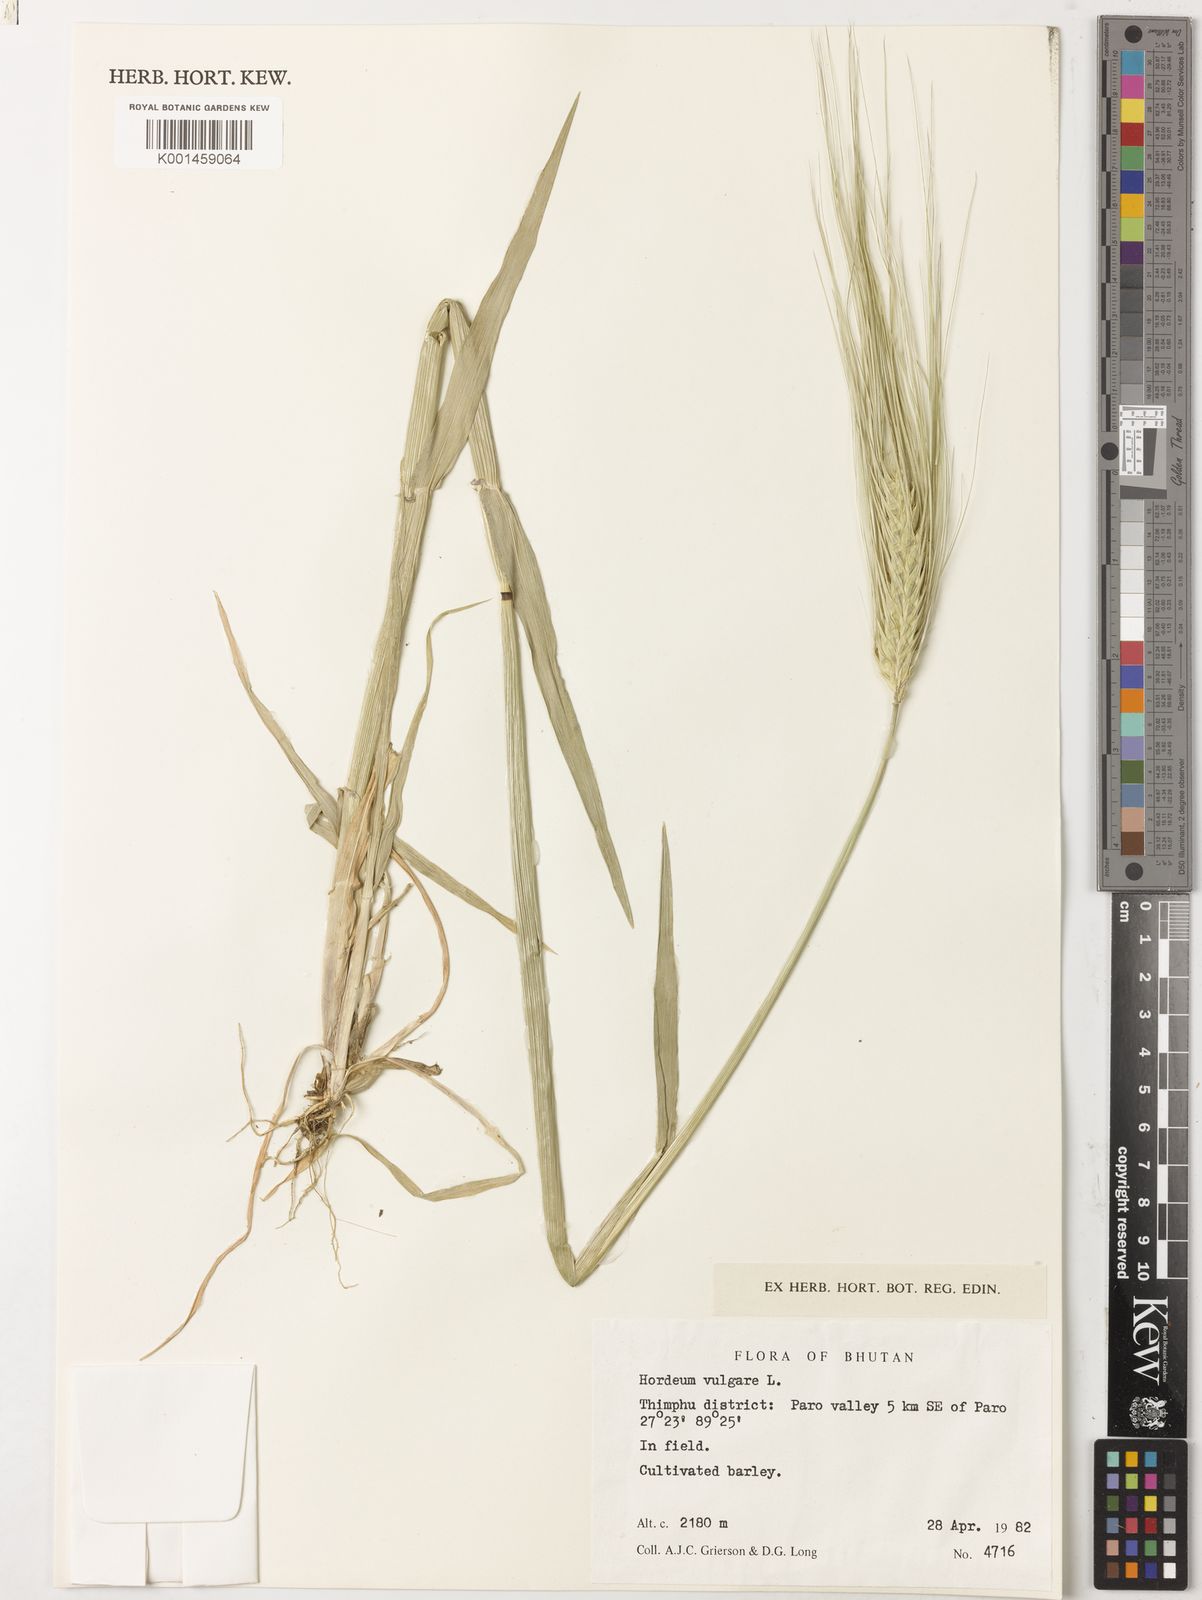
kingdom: Plantae
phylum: Tracheophyta
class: Liliopsida
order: Poales
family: Poaceae
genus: Hordeum
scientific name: Hordeum vulgare
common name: Common barley
